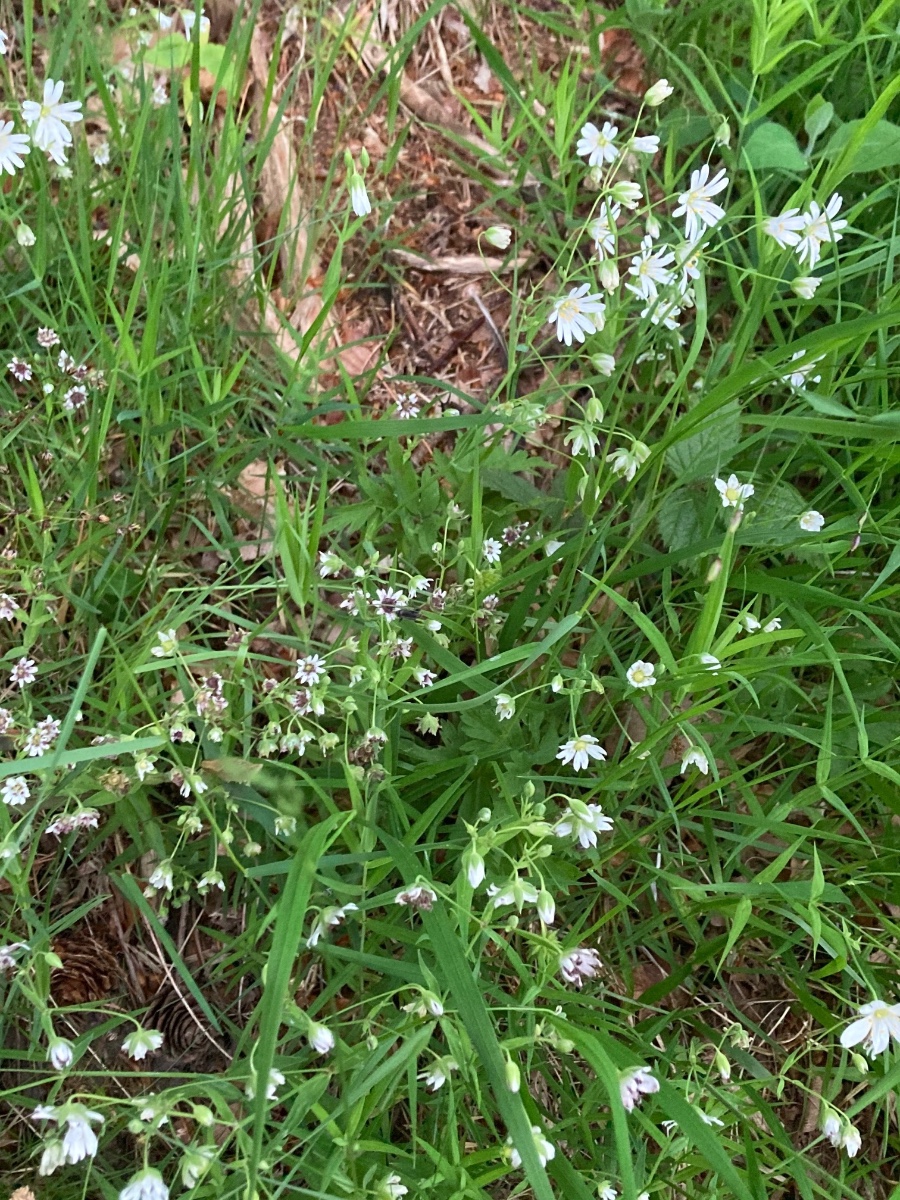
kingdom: Fungi
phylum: Basidiomycota
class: Microbotryomycetes
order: Microbotryales
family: Microbotryaceae
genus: Microbotryum
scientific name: Microbotryum stellariae
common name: fladstjerne-støvbladrust
